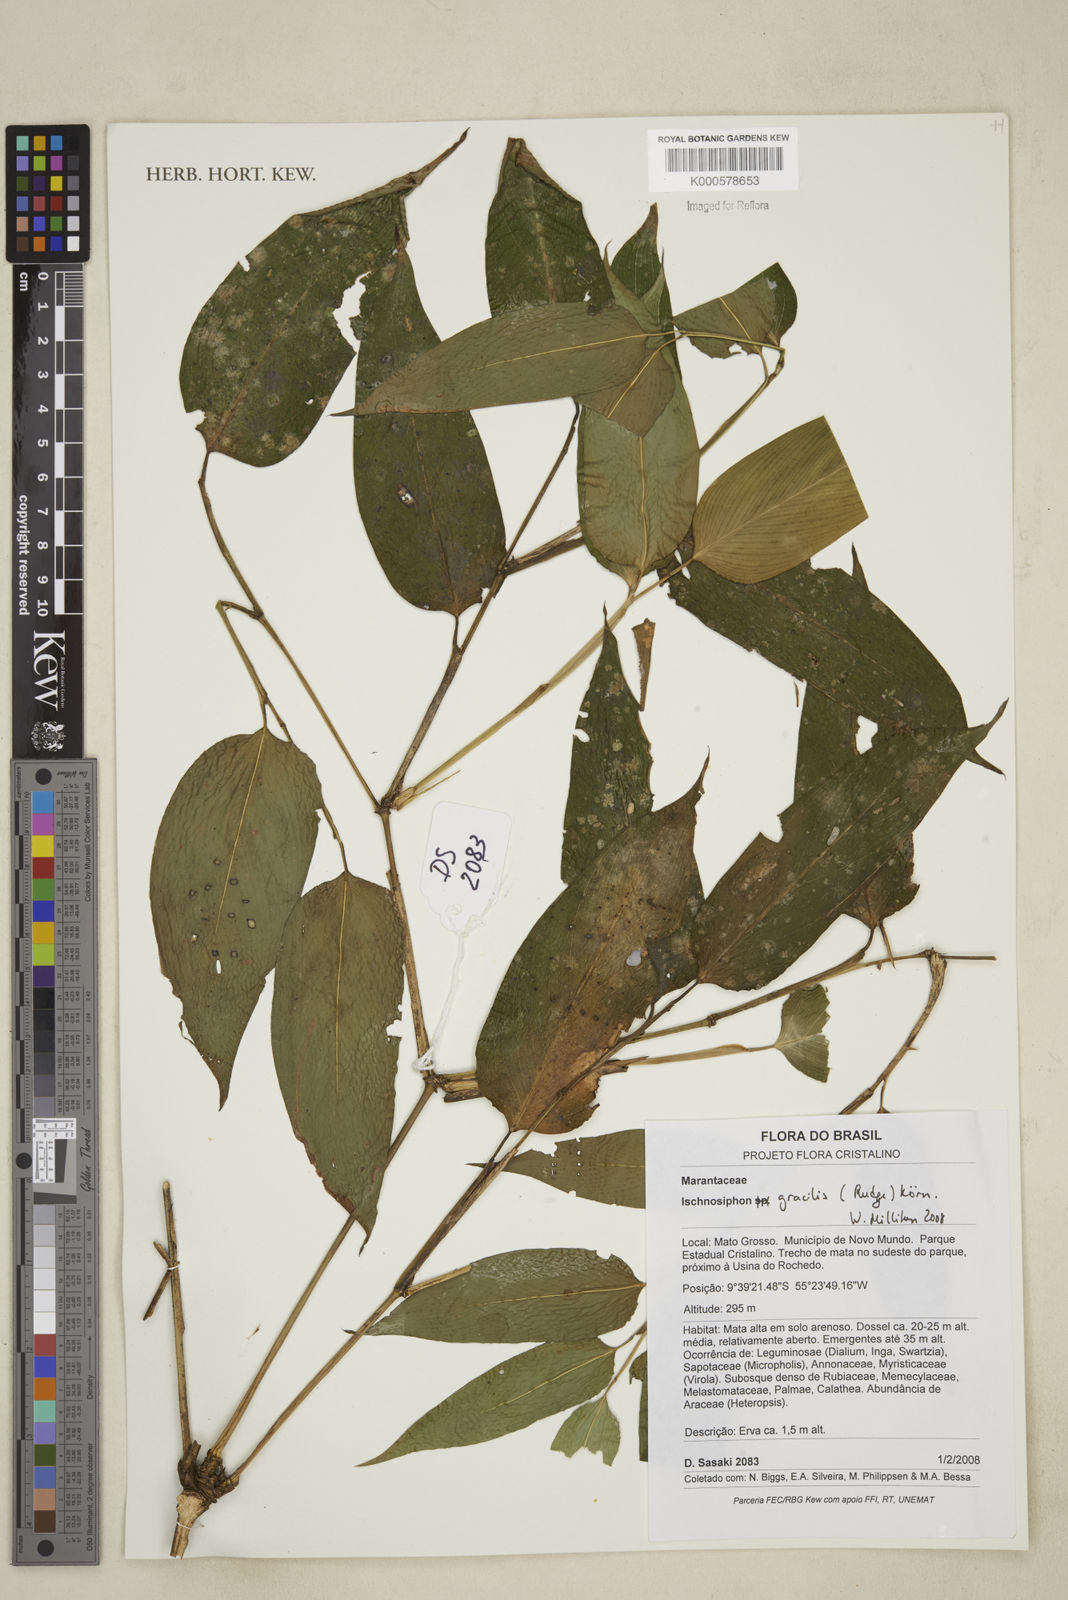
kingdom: Plantae
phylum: Tracheophyta
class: Liliopsida
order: Zingiberales
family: Marantaceae
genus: Ischnosiphon
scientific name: Ischnosiphon
